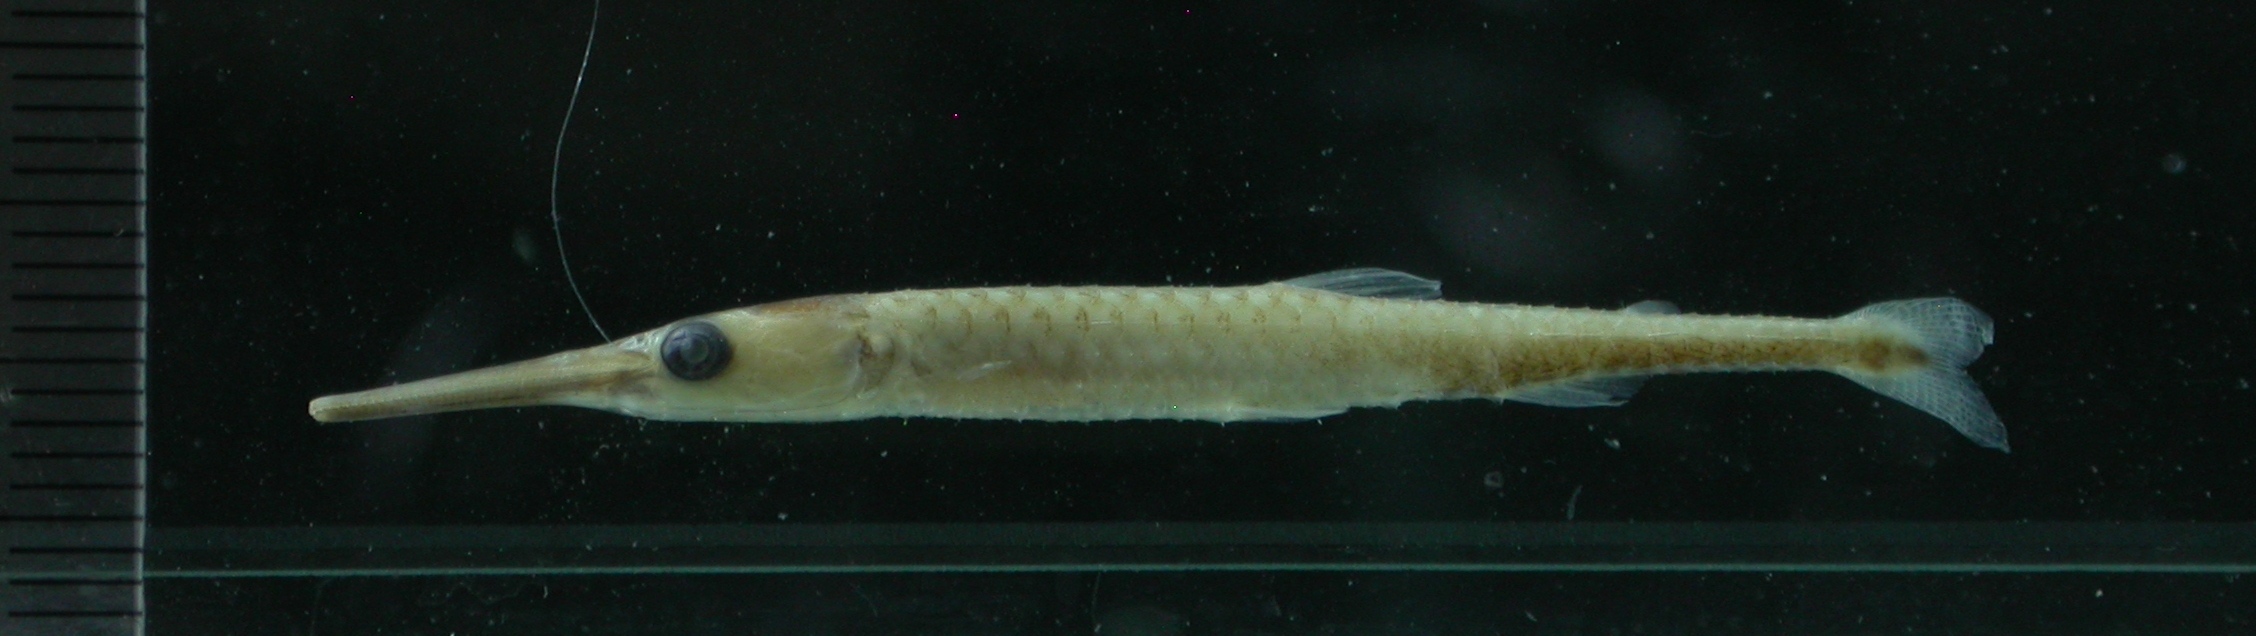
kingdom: Animalia
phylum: Chordata
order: Characiformes
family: Distichodontidae
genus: Ichthyborus
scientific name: Ichthyborus
